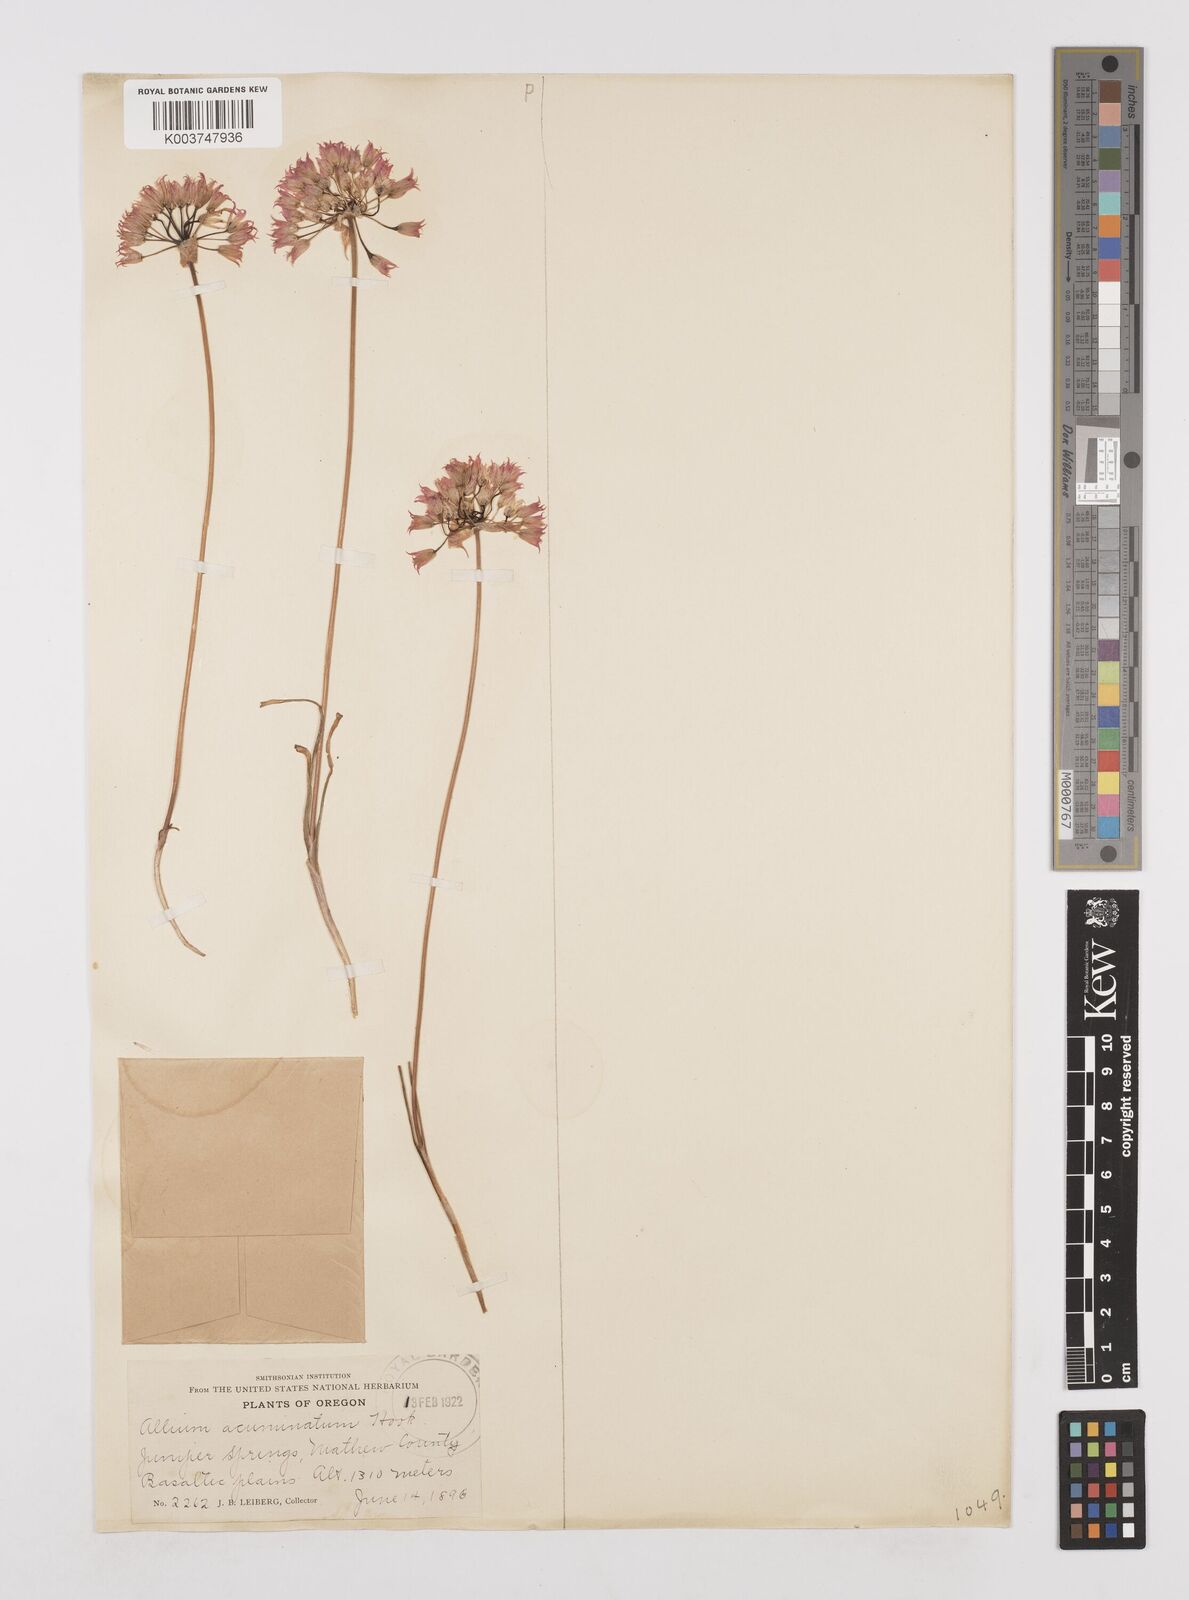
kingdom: Plantae
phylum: Tracheophyta
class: Liliopsida
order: Asparagales
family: Amaryllidaceae
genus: Allium
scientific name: Allium acuminatum
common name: Hooker's onion
